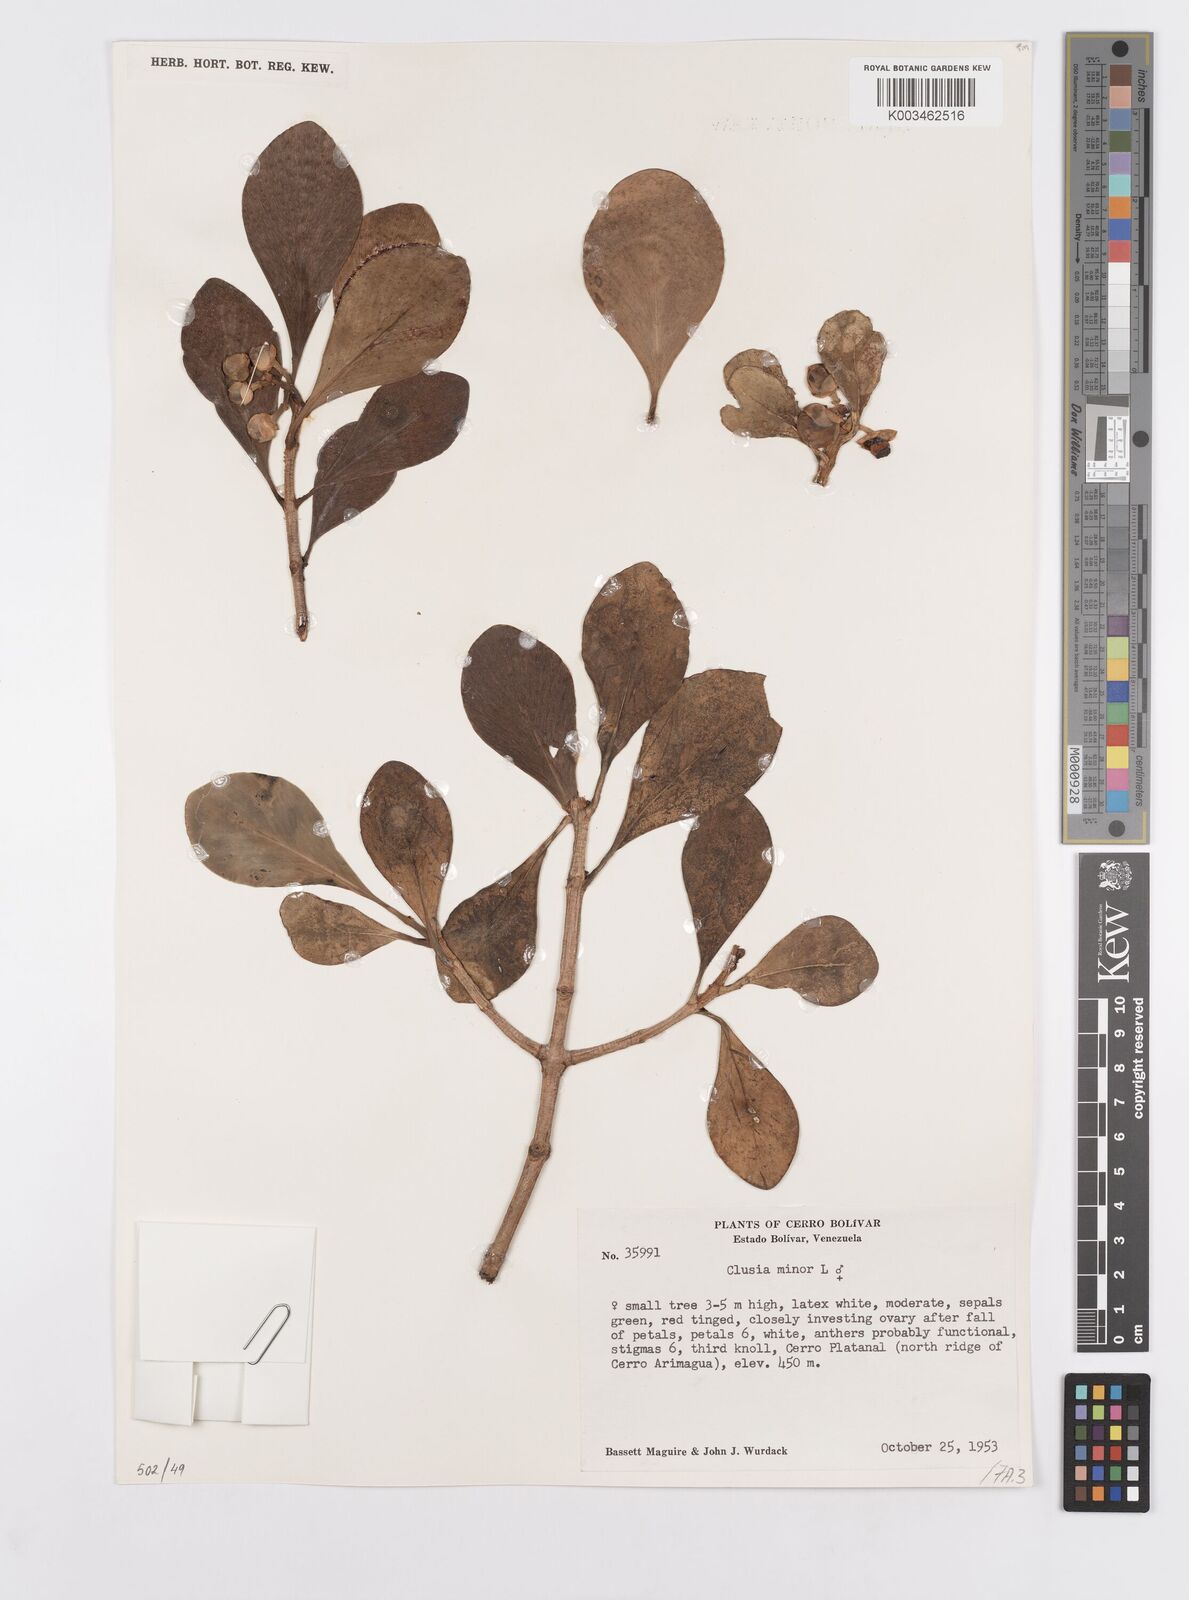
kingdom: Plantae
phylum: Tracheophyta
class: Magnoliopsida
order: Malpighiales
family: Clusiaceae
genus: Clusia
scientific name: Clusia minor
